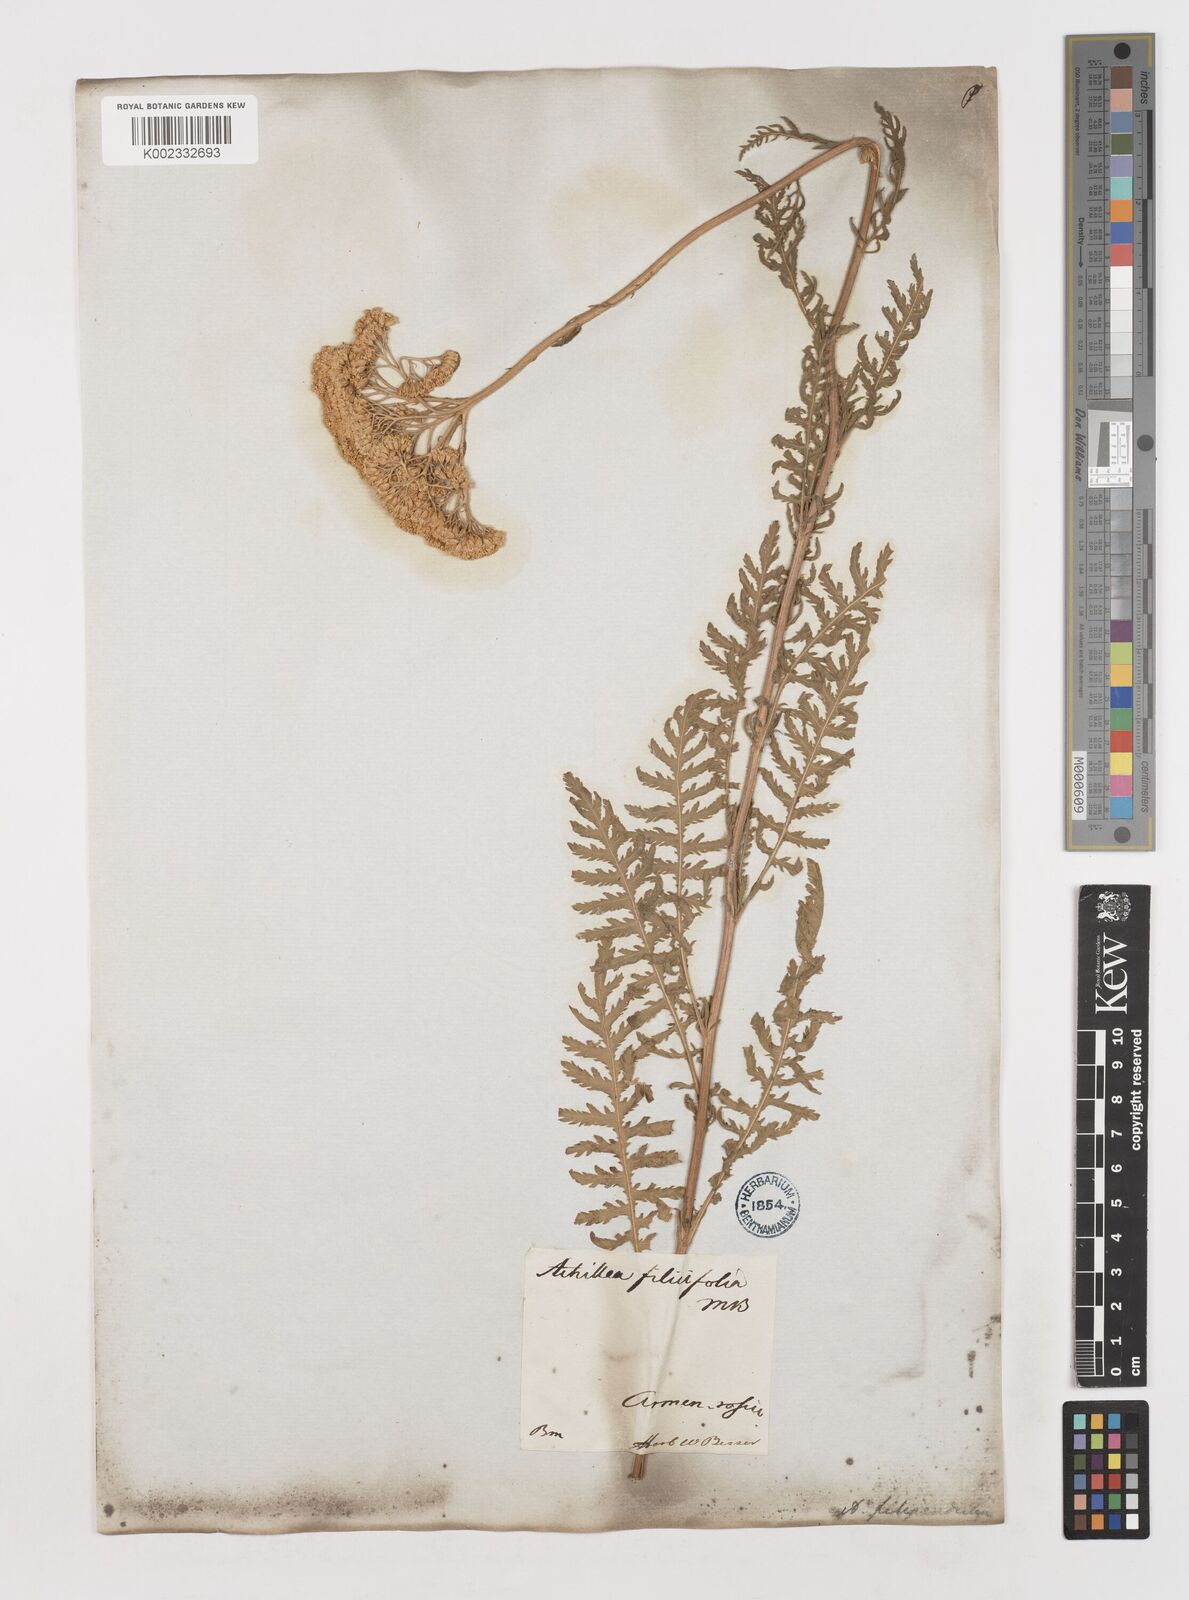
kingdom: Plantae
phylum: Tracheophyta
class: Magnoliopsida
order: Asterales
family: Asteraceae
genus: Achillea
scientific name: Achillea filipendulina
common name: Fernleaf yarrow
